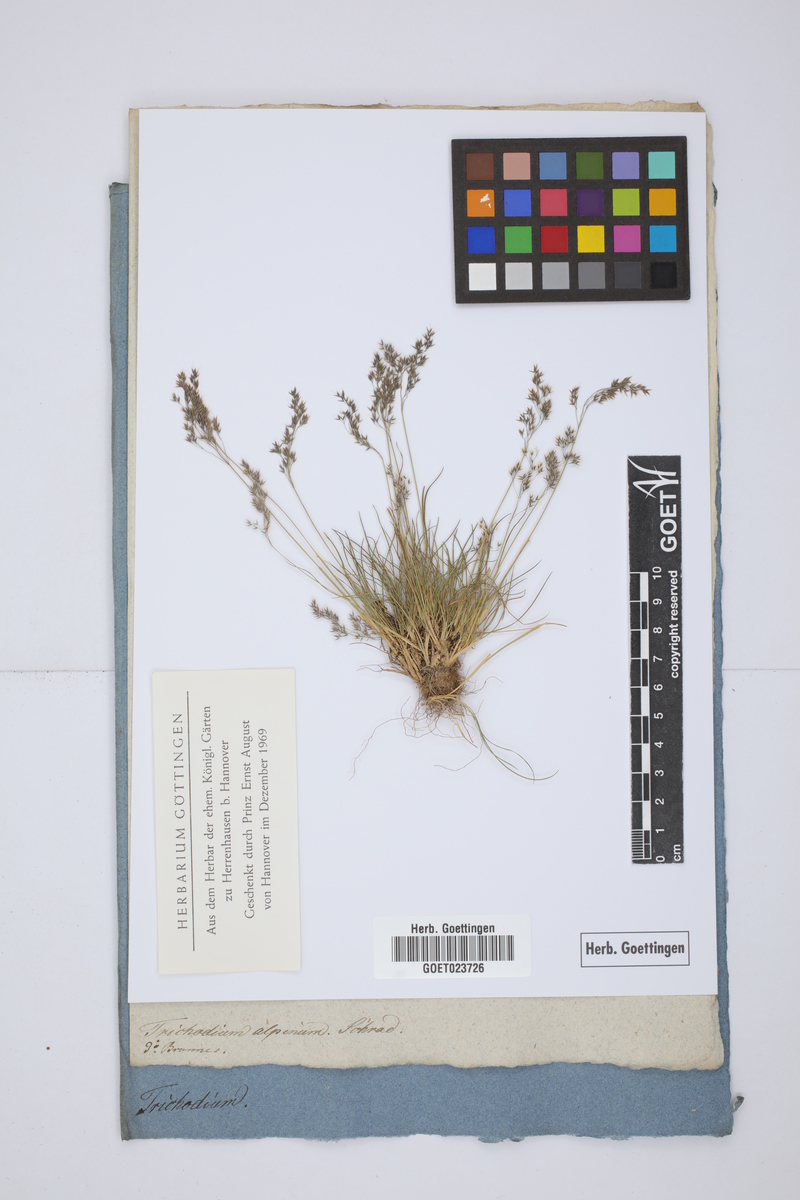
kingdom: Plantae
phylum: Tracheophyta
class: Liliopsida
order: Poales
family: Poaceae
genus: Agrostis
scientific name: Agrostis rupestris
